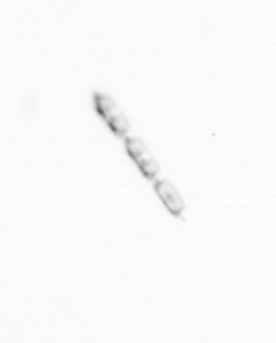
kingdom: Chromista
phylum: Ochrophyta
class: Bacillariophyceae
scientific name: Bacillariophyceae
